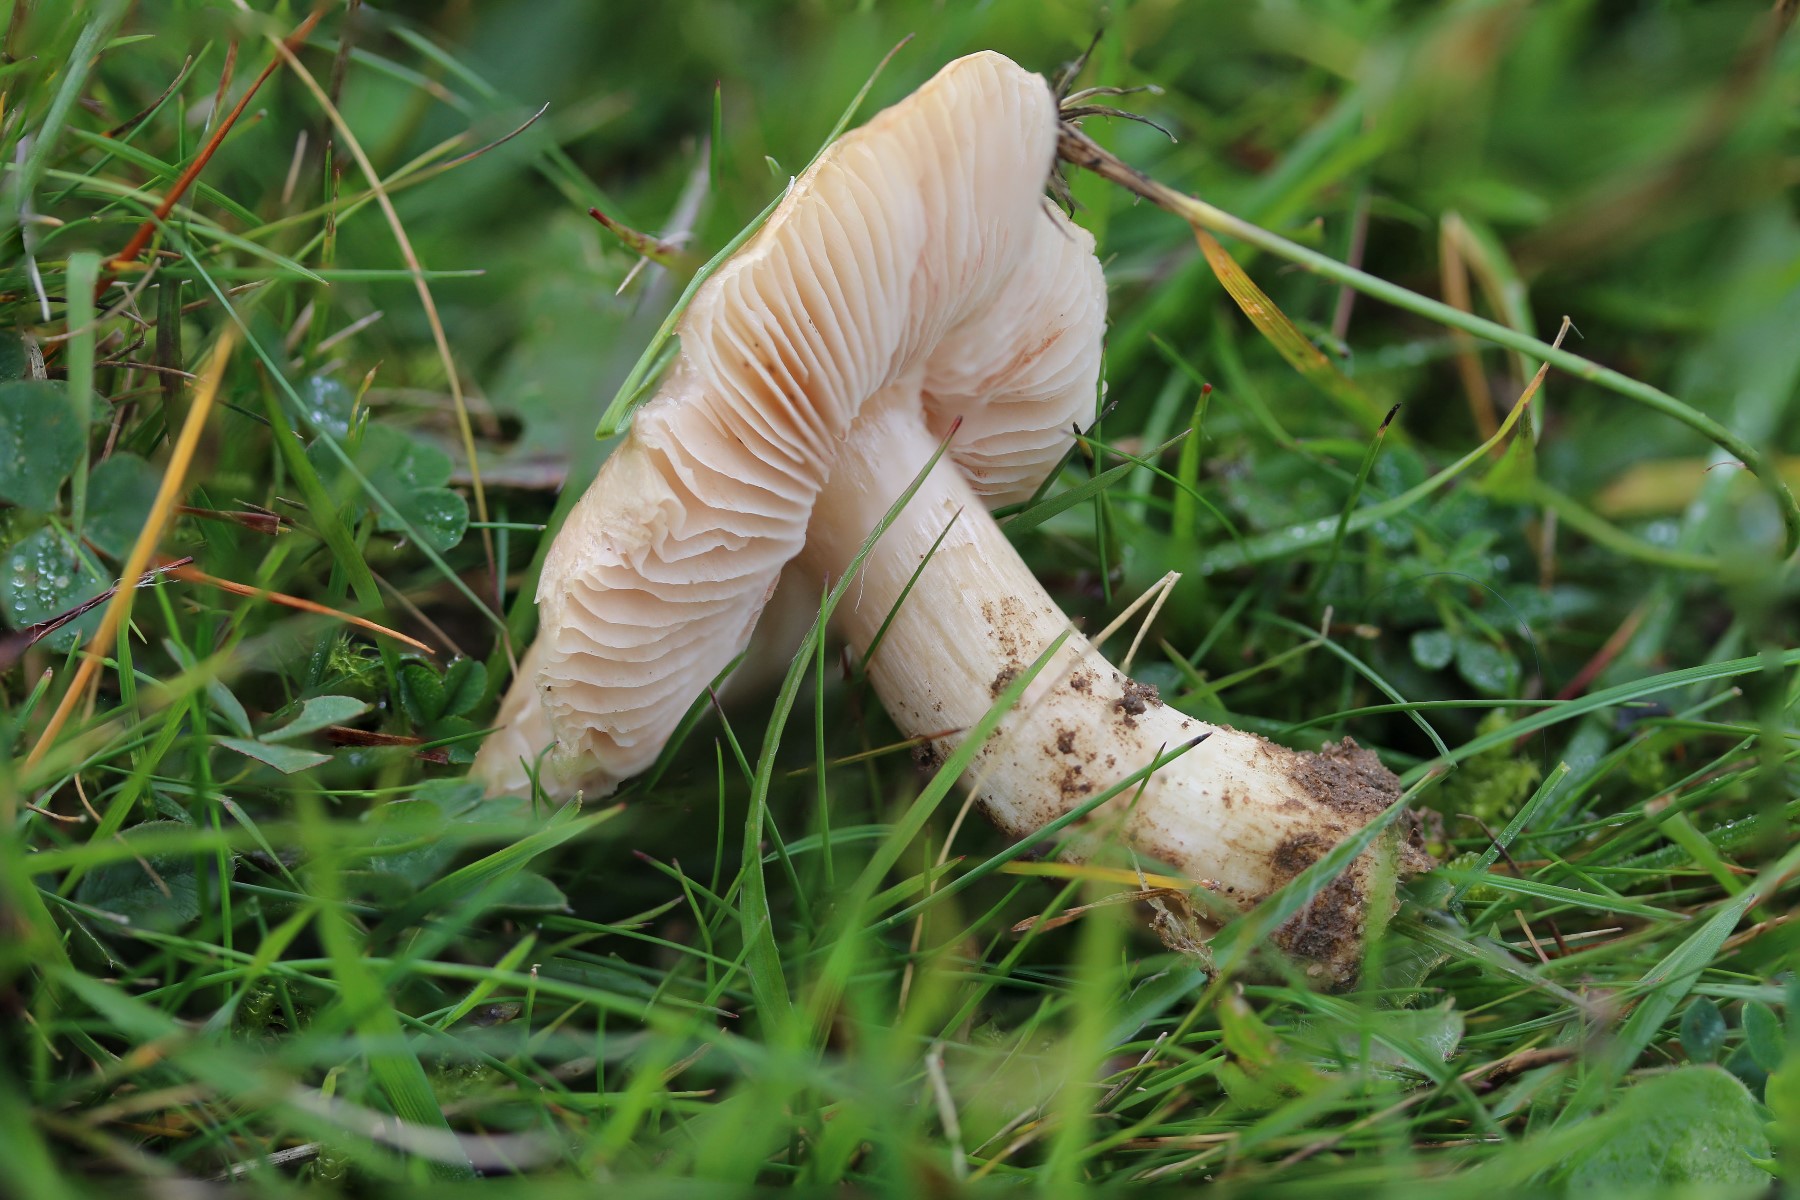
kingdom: Fungi
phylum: Basidiomycota
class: Agaricomycetes
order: Agaricales
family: Entolomataceae
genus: Entoloma
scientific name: Entoloma prunuloides
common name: mel-rødblad
